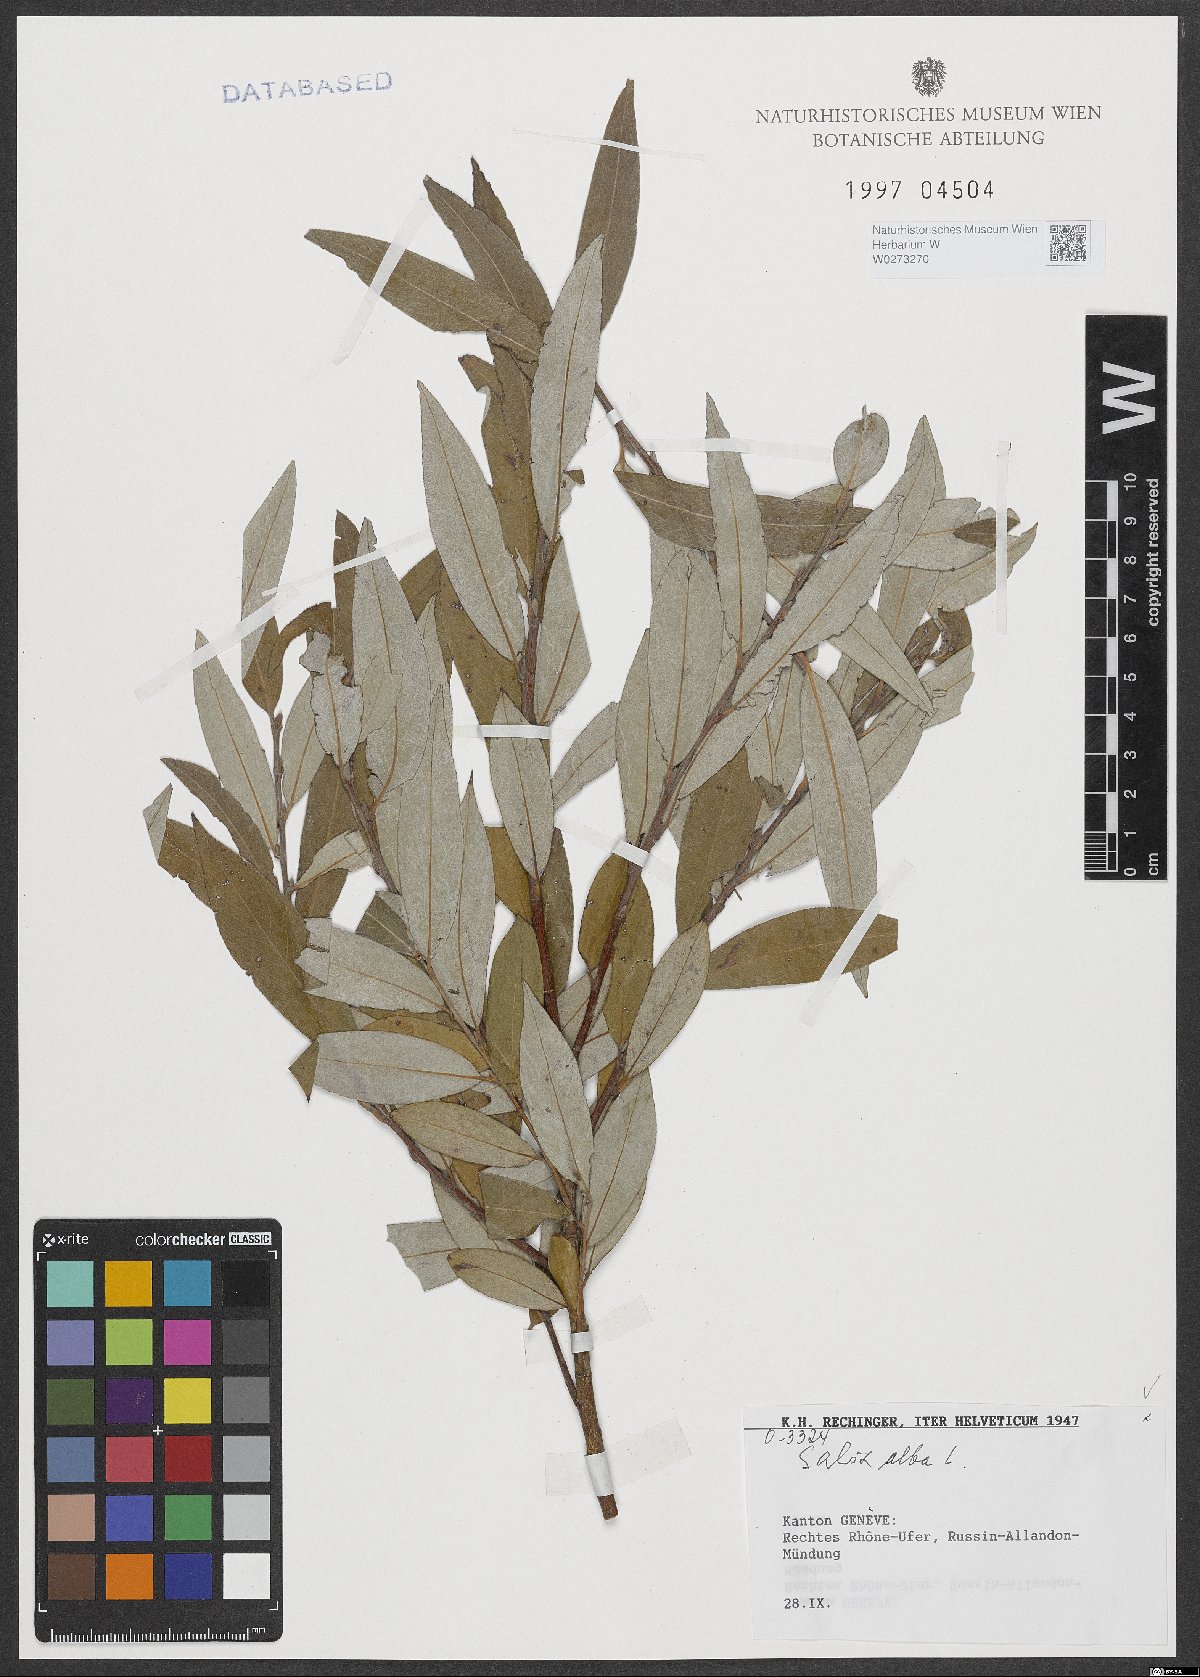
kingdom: Plantae
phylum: Tracheophyta
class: Magnoliopsida
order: Malpighiales
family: Salicaceae
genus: Salix
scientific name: Salix alba
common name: White willow
